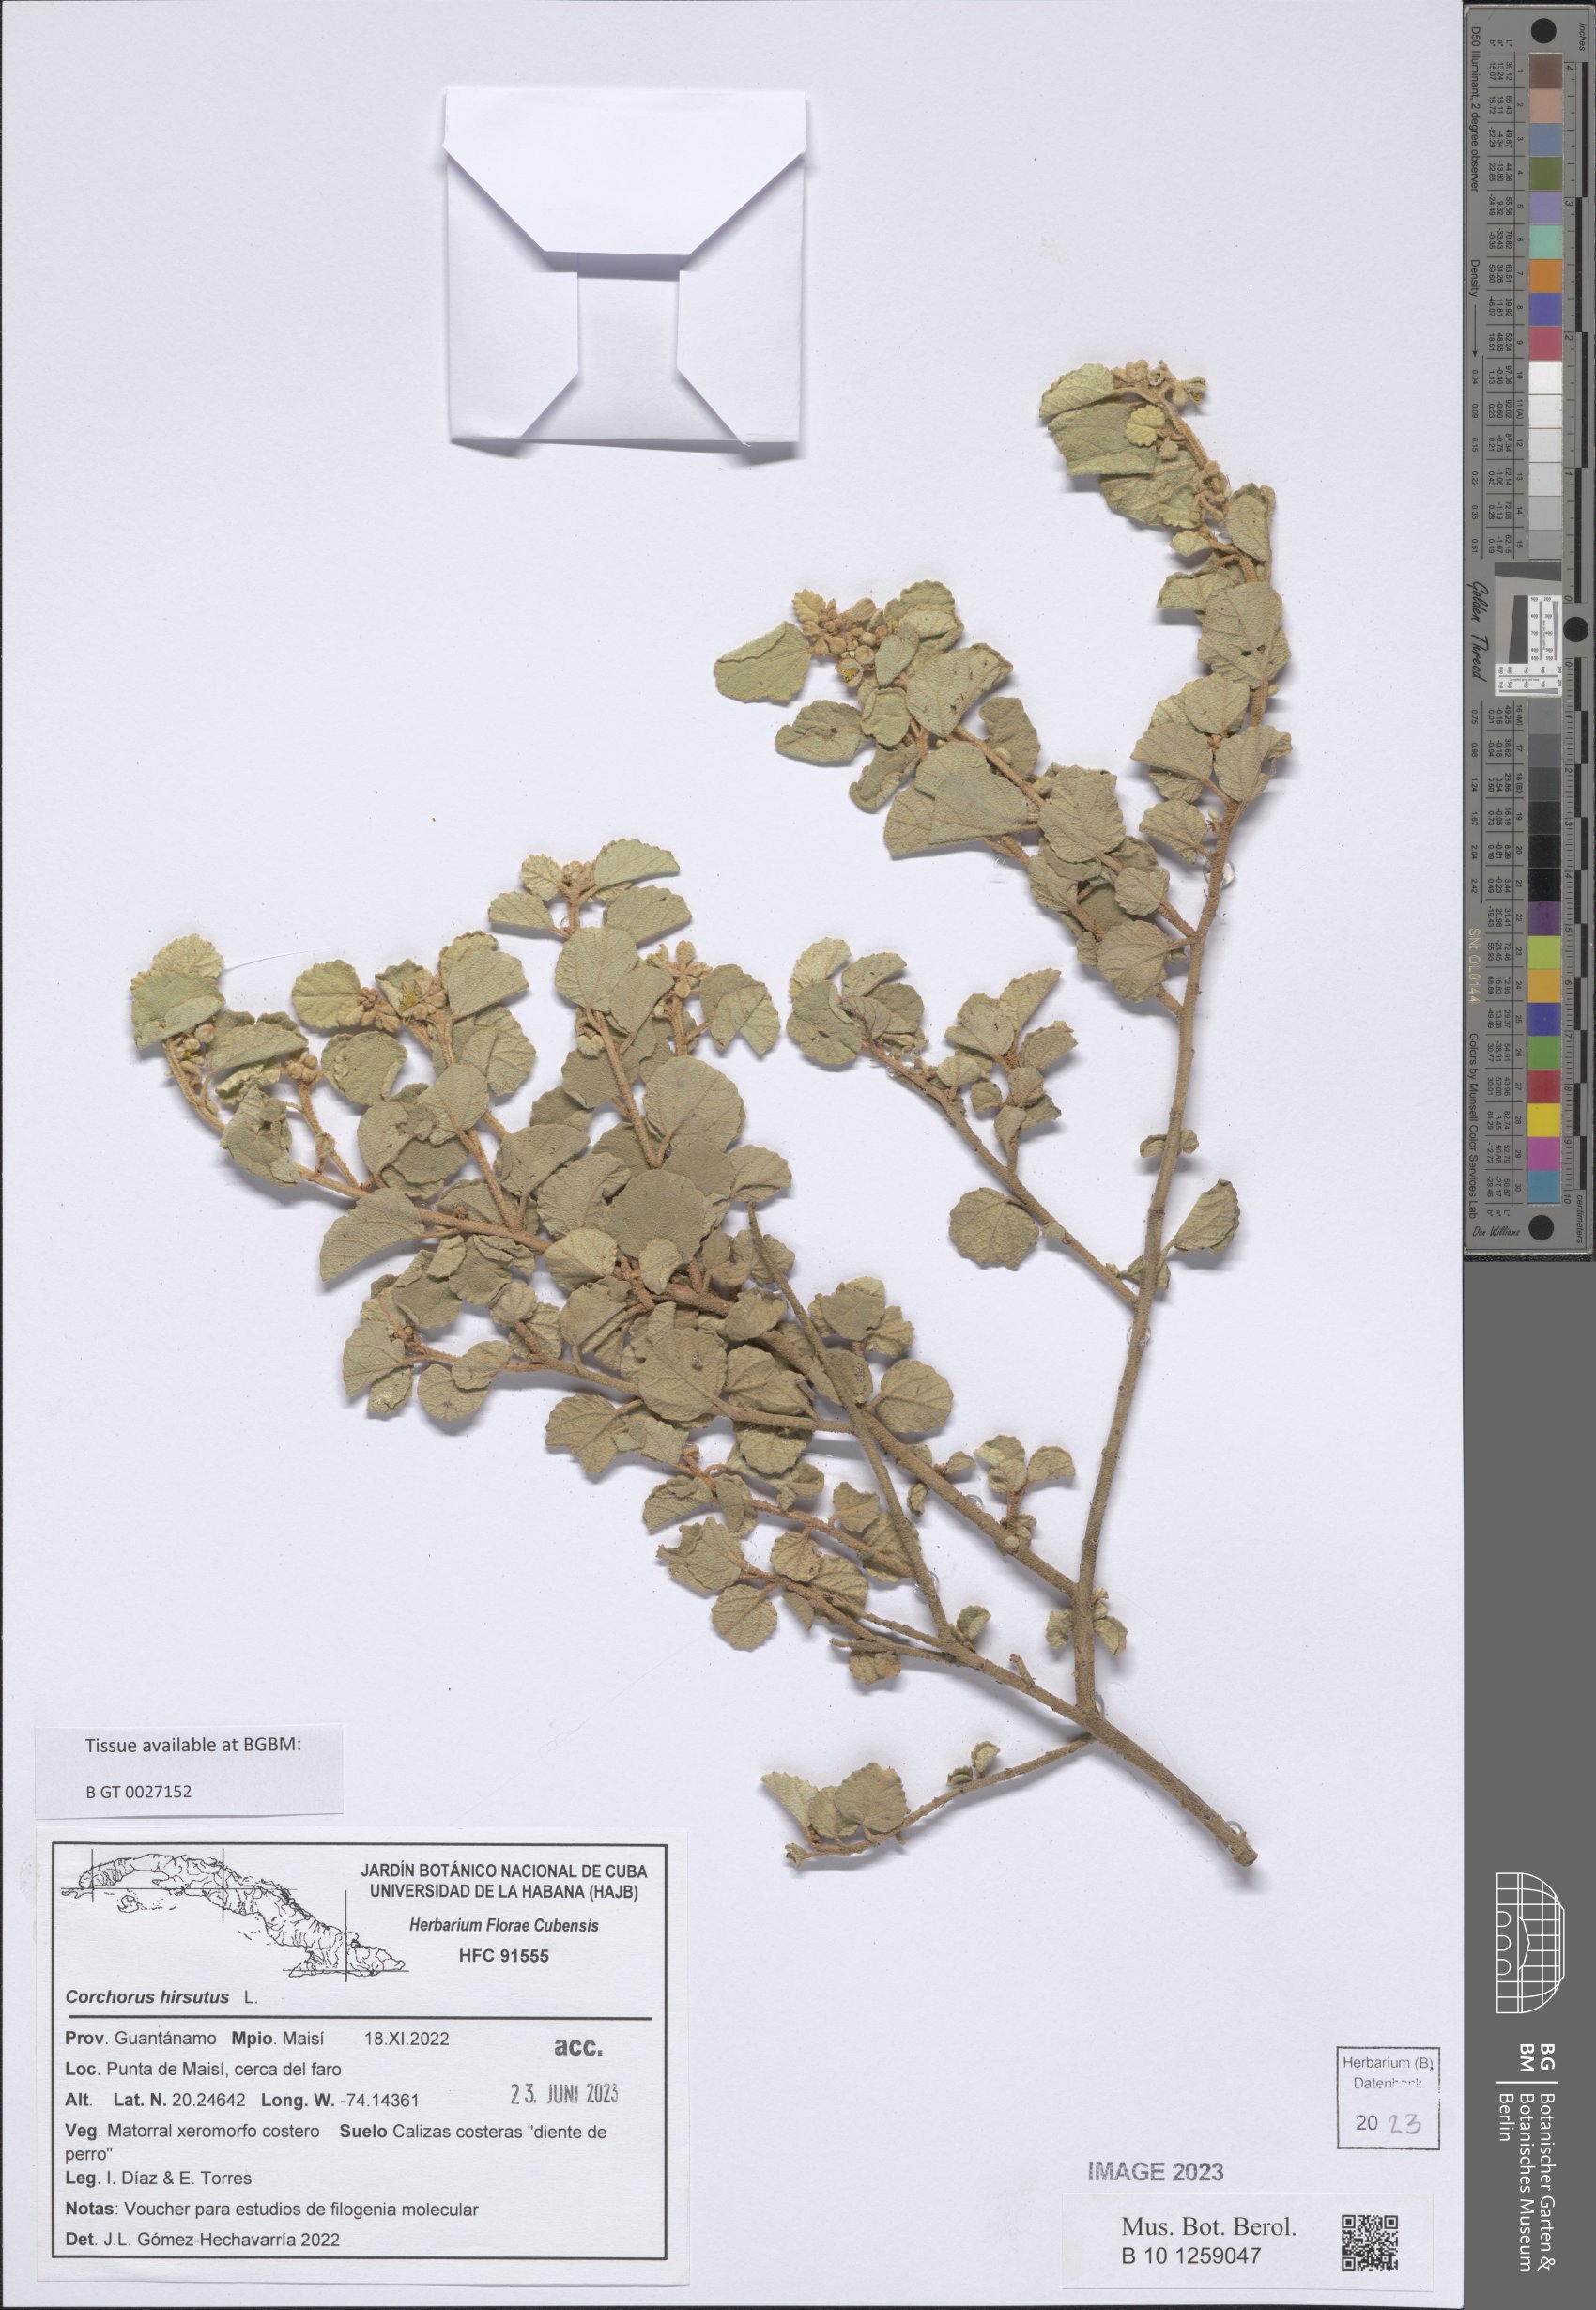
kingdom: Plantae
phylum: Tracheophyta
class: Magnoliopsida
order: Malvales
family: Malvaceae
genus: Corchorus
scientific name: Corchorus hirsutus
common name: Jackswitch
